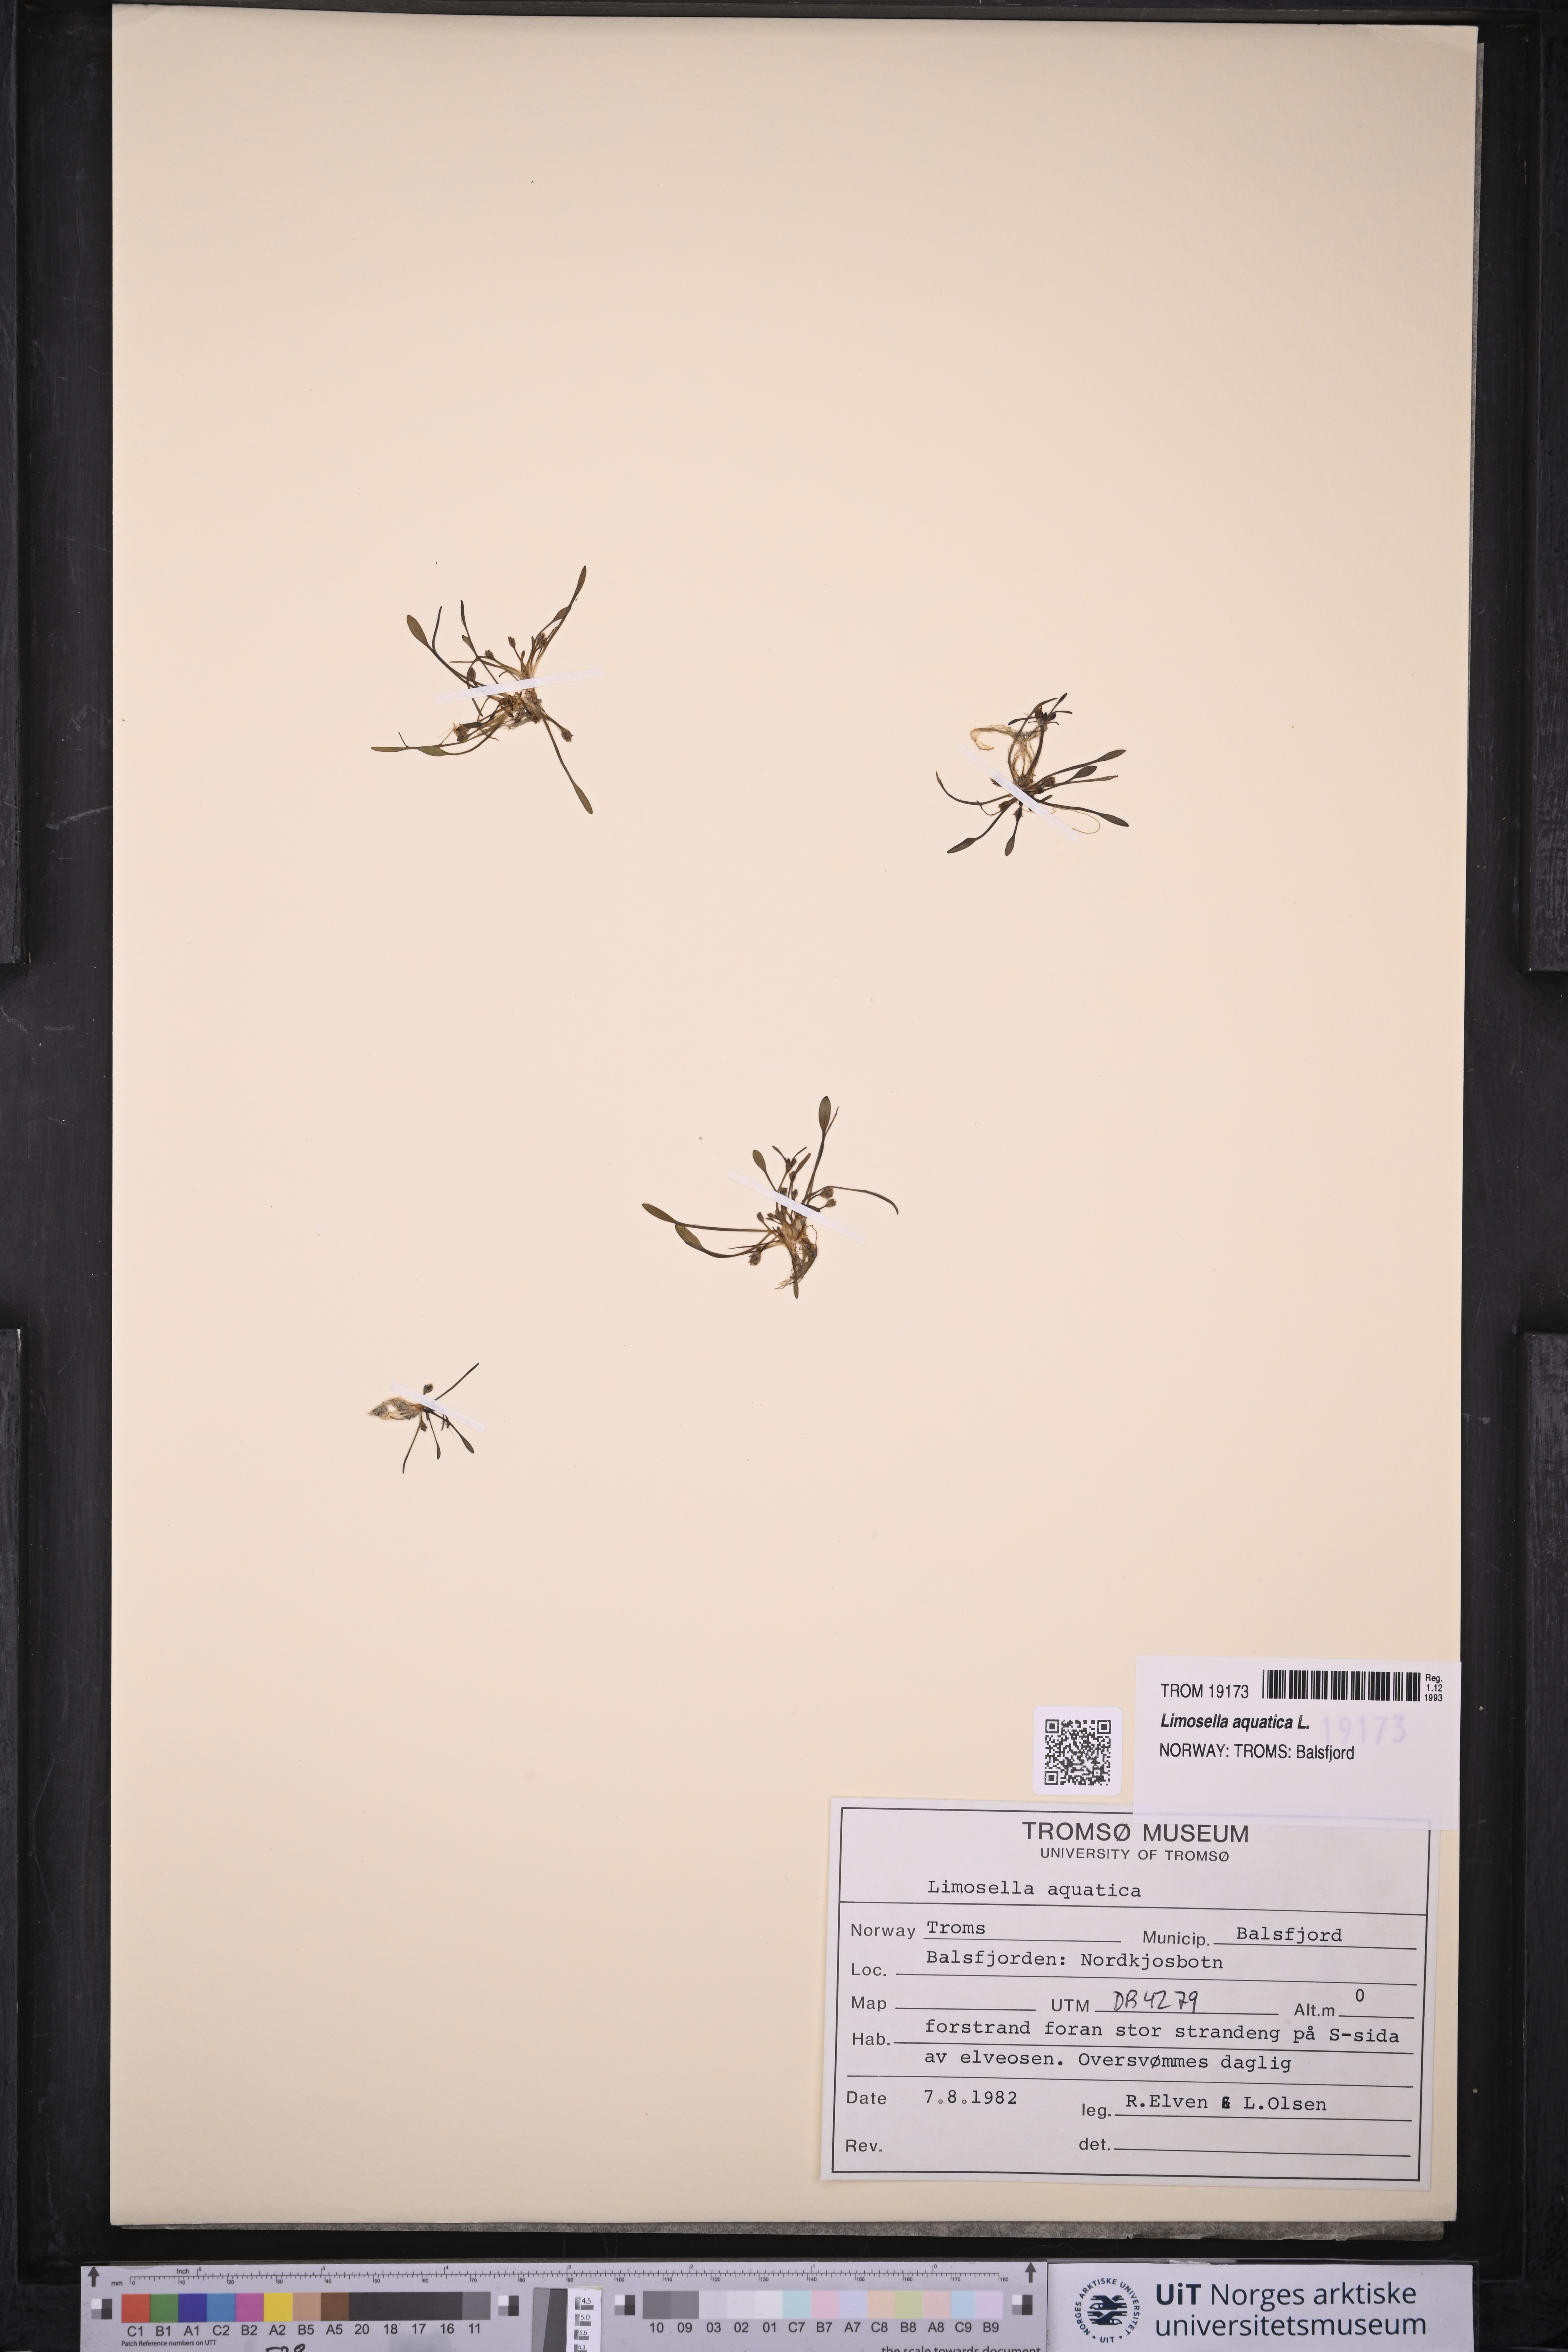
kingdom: Plantae
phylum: Tracheophyta
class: Magnoliopsida
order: Lamiales
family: Scrophulariaceae
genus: Limosella
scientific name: Limosella aquatica
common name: Mudwort
